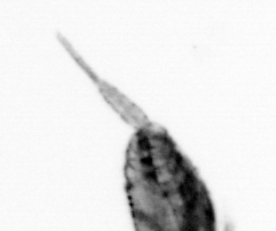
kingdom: Animalia
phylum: Arthropoda
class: Copepoda
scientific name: Copepoda
